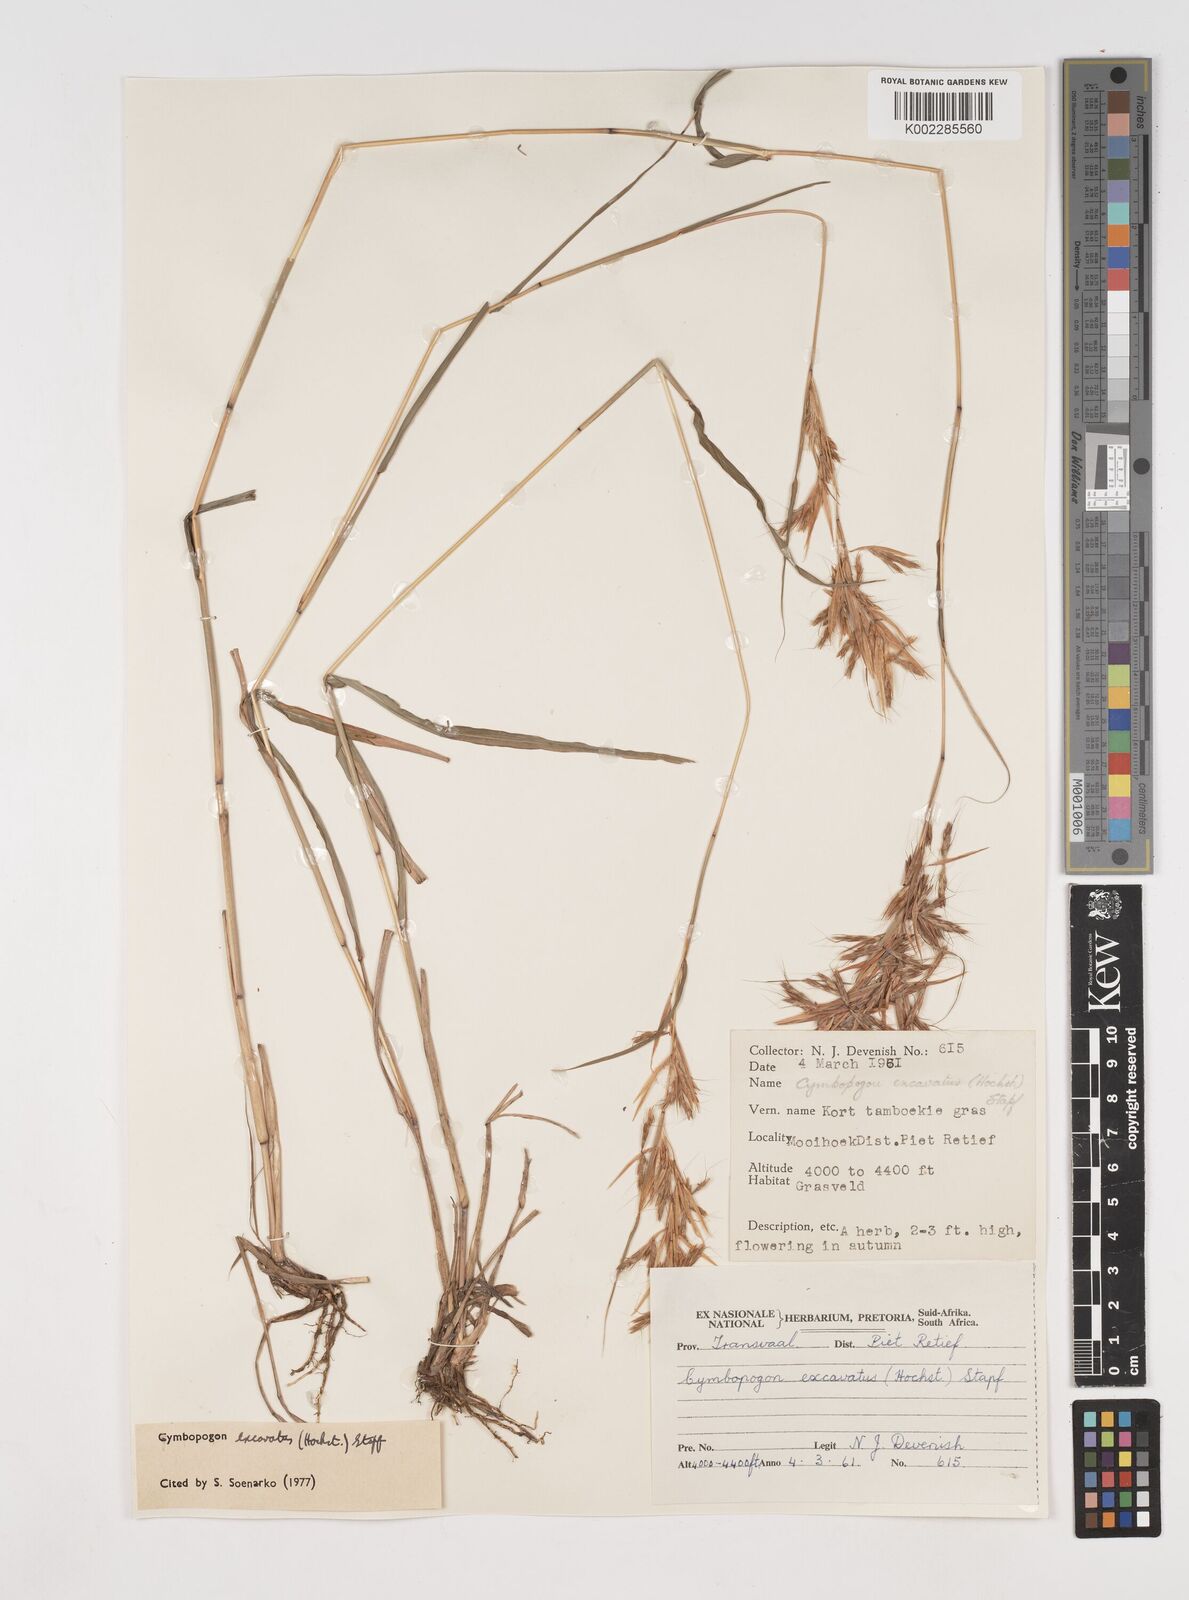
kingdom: Plantae
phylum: Tracheophyta
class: Liliopsida
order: Poales
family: Poaceae
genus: Cymbopogon
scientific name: Cymbopogon caesius
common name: Kachi grass
